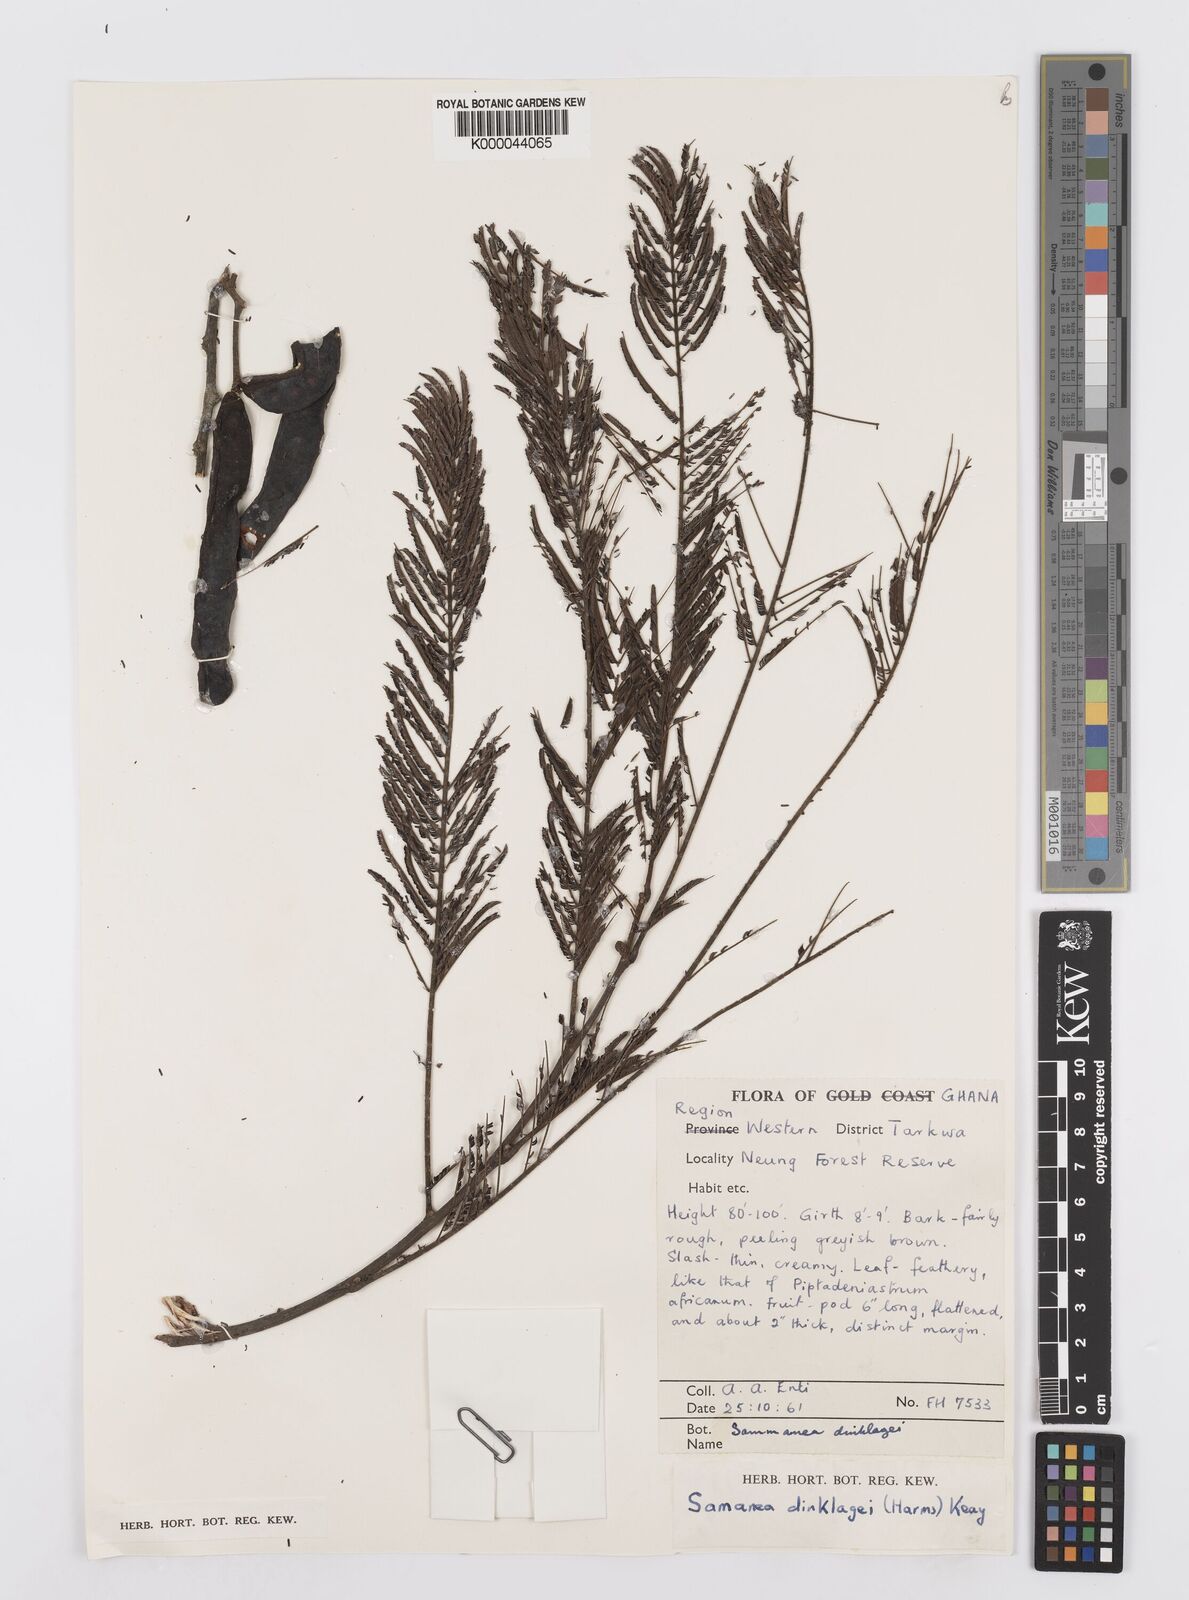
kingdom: Plantae
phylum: Tracheophyta
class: Magnoliopsida
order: Fabales
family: Fabaceae
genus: Albizia
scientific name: Albizia dinklagei
